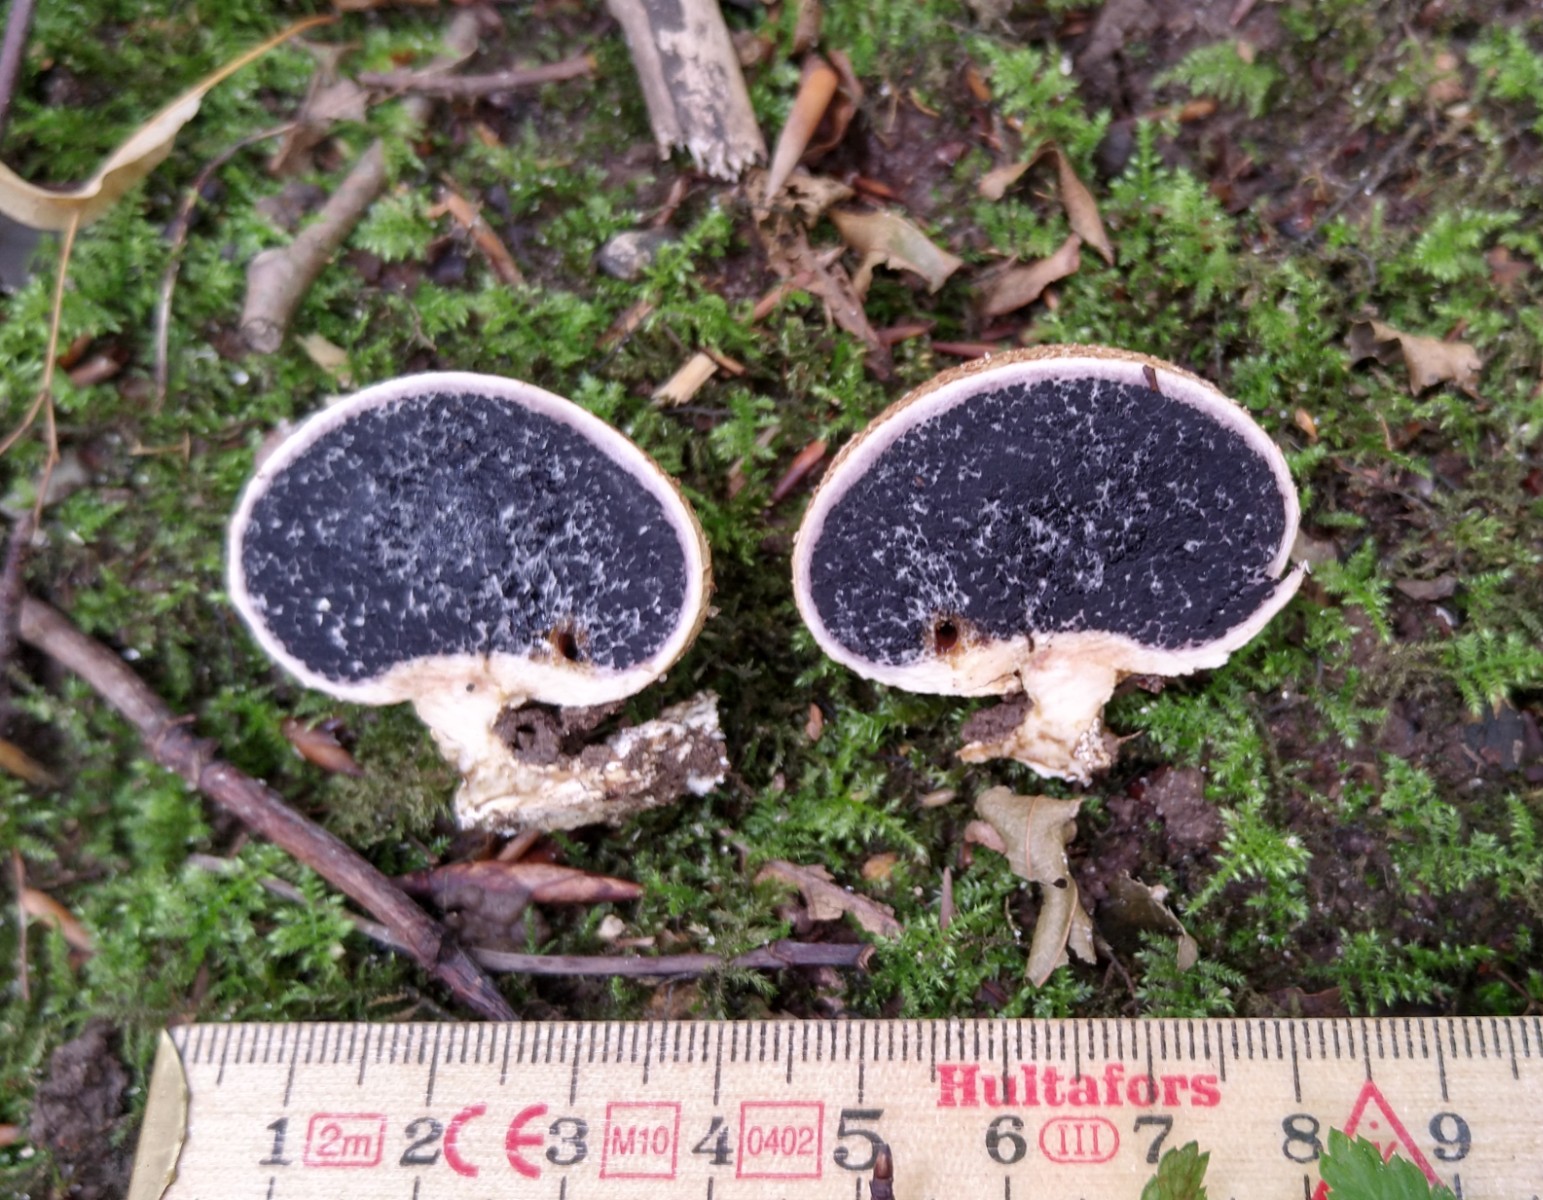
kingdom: Fungi
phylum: Basidiomycota
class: Agaricomycetes
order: Boletales
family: Sclerodermataceae
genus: Scleroderma
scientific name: Scleroderma citrinum
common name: almindelig bruskbold
